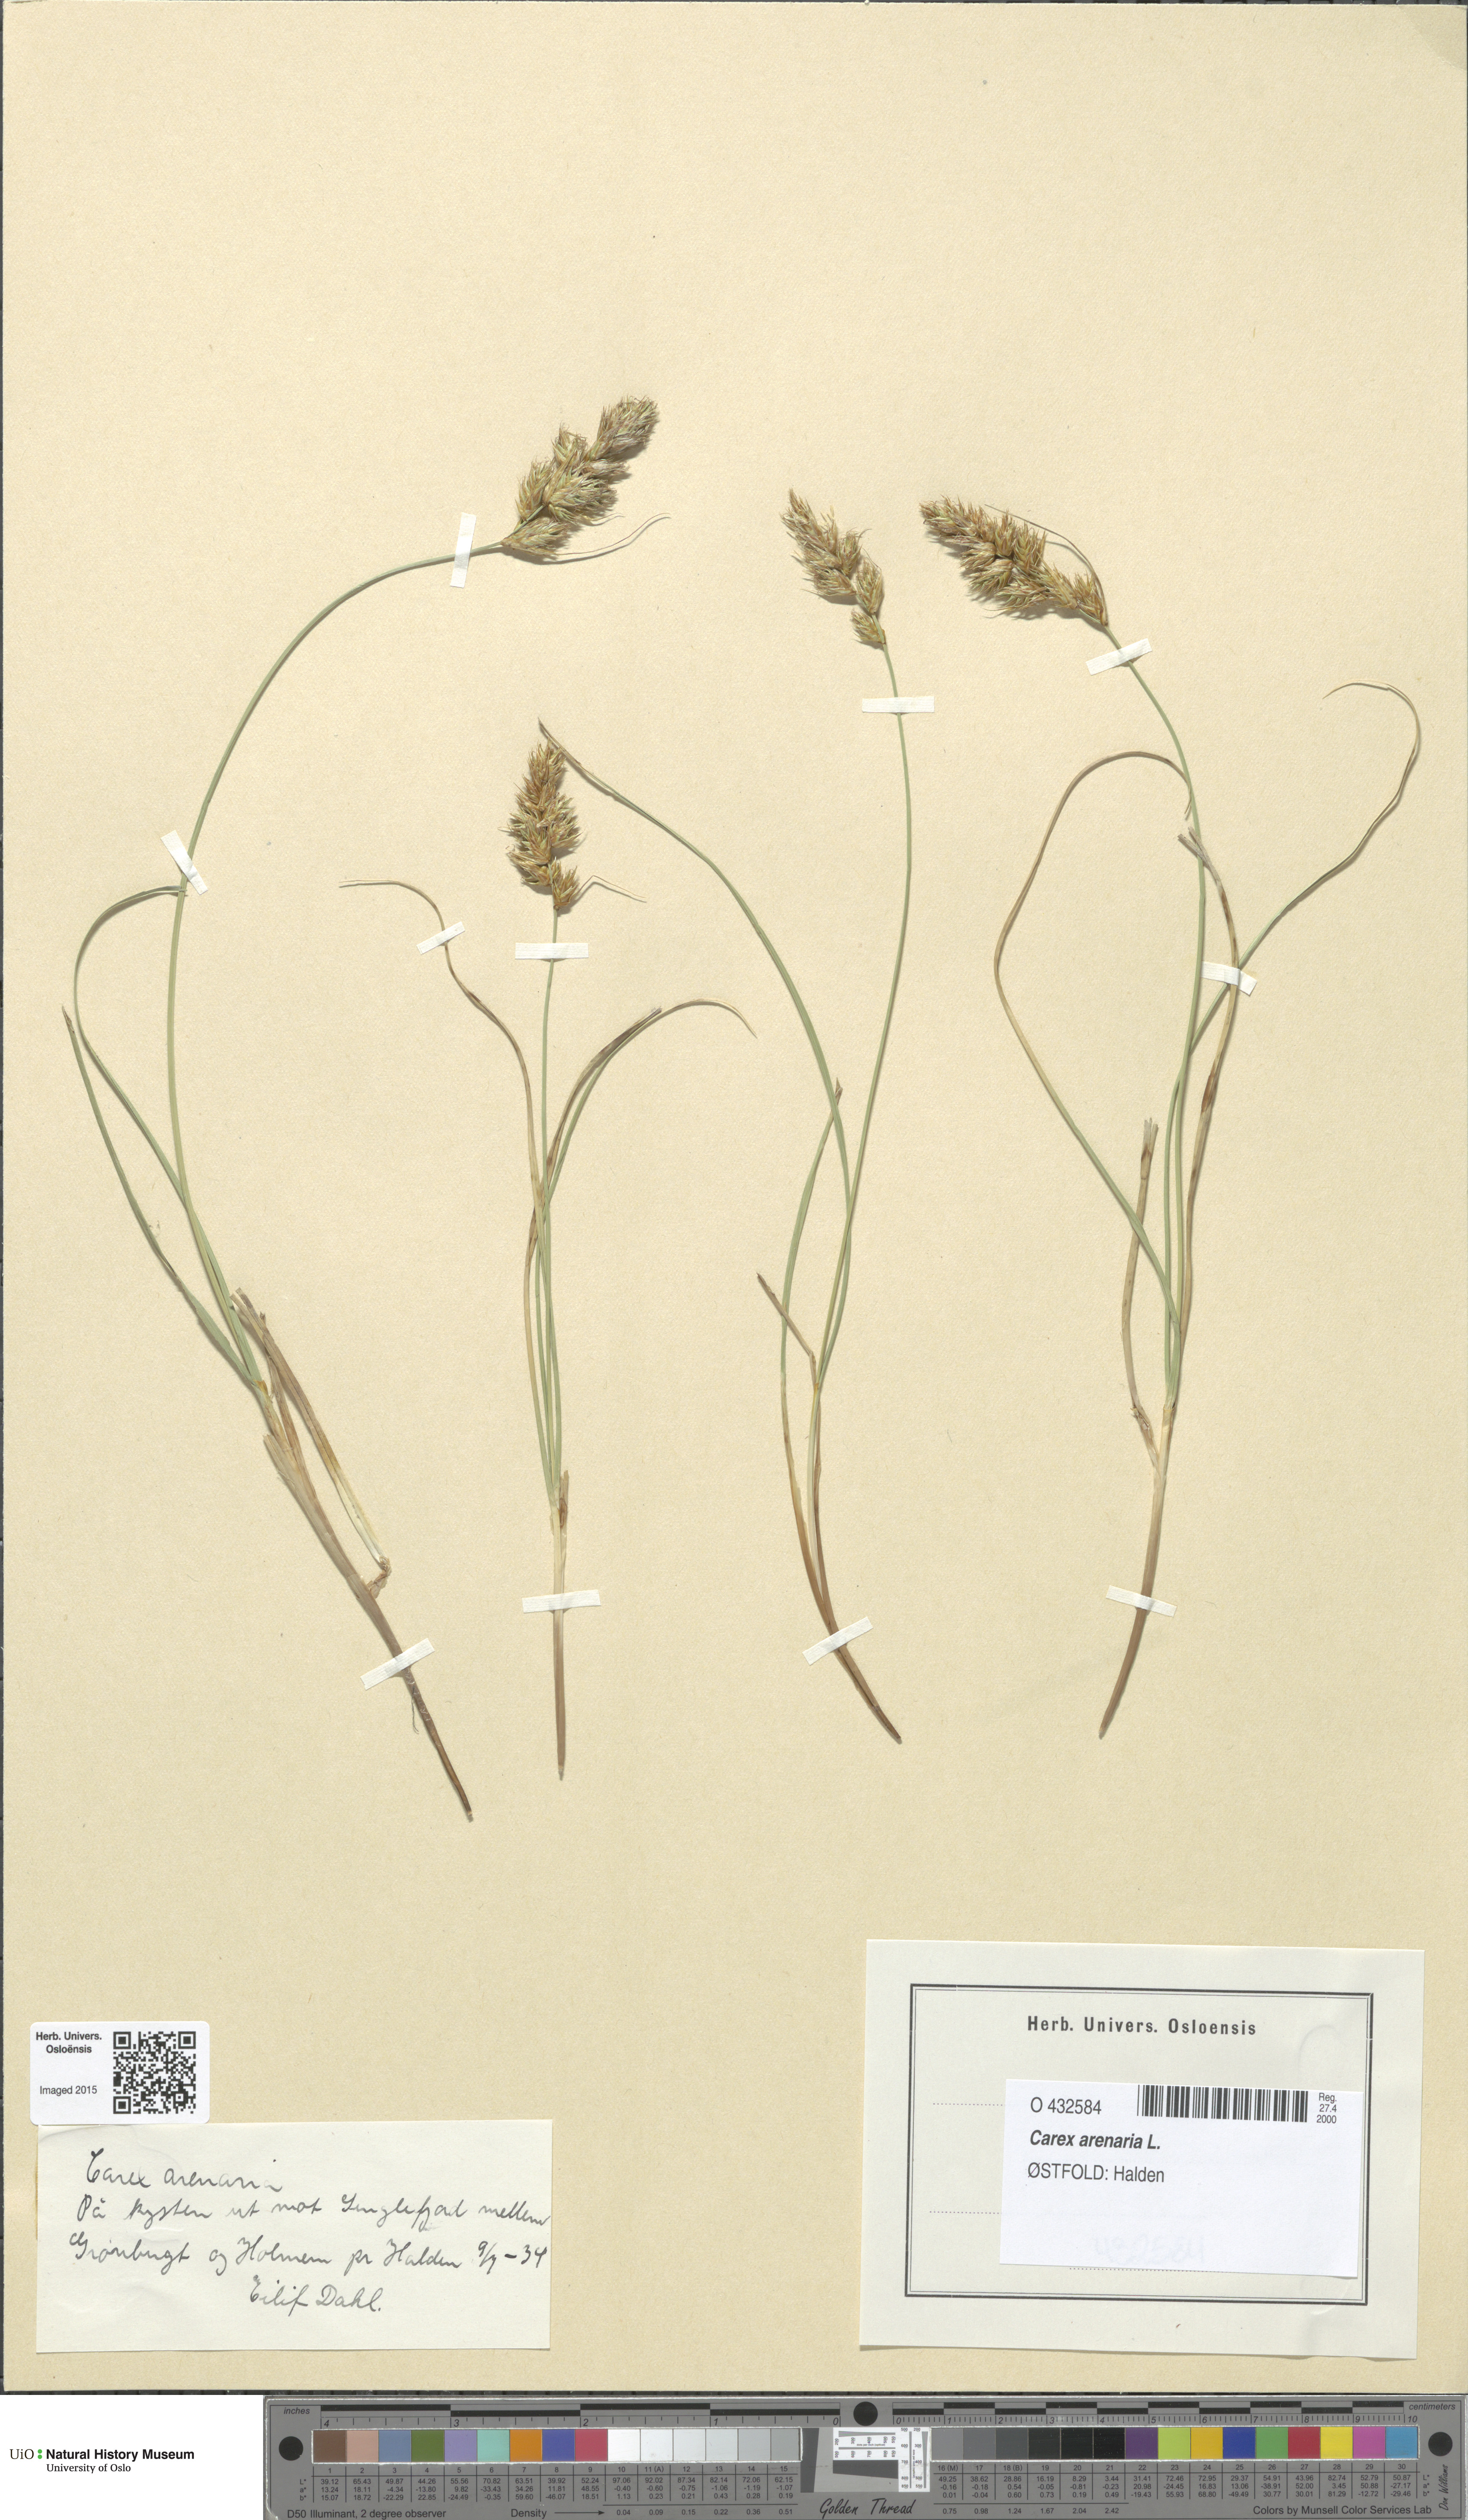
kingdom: Plantae
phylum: Tracheophyta
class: Liliopsida
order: Poales
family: Cyperaceae
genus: Carex
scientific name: Carex arenaria
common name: Sand sedge
